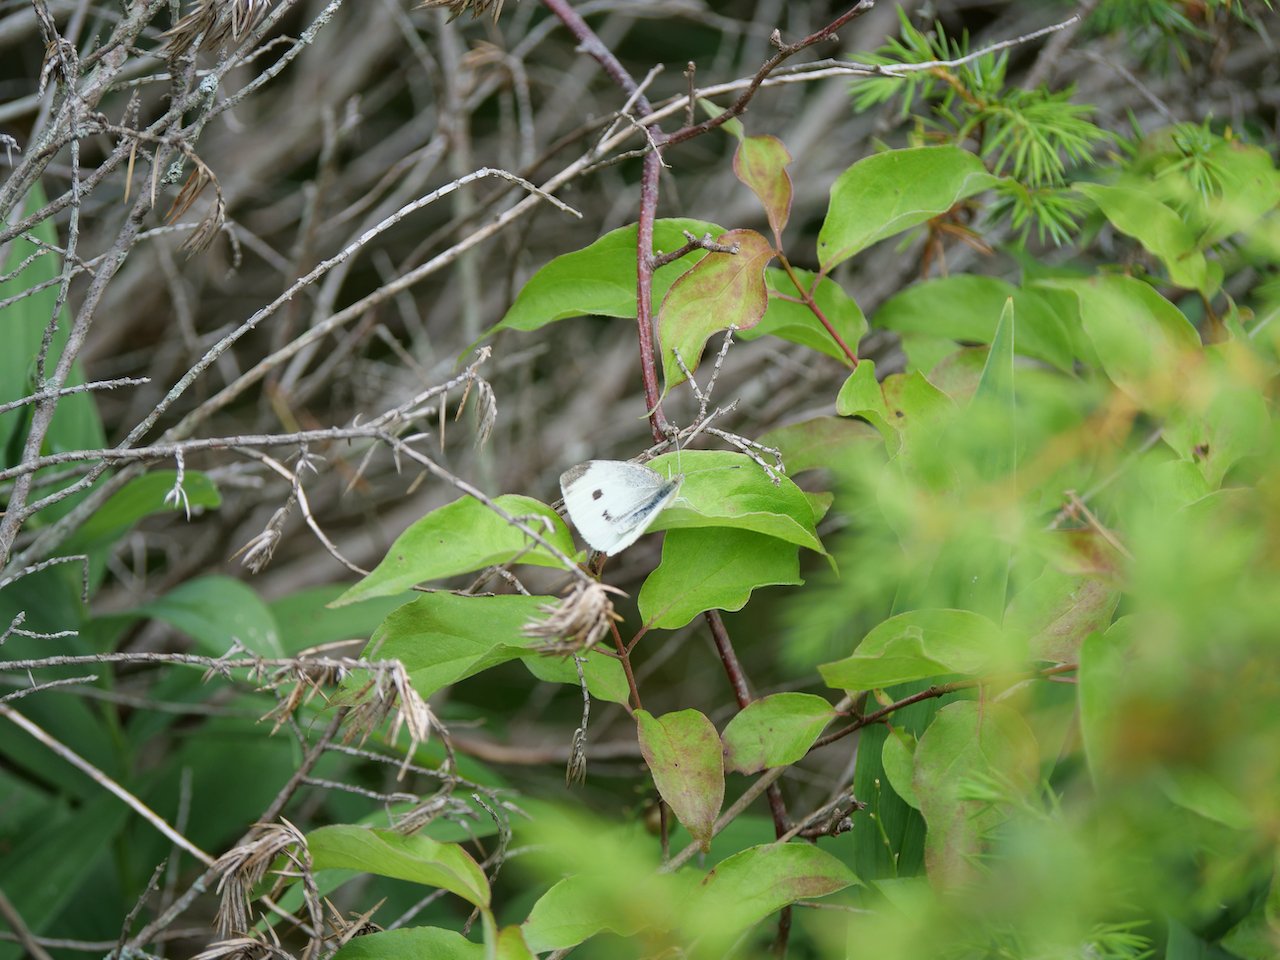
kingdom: Animalia
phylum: Arthropoda
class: Insecta
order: Lepidoptera
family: Pieridae
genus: Pieris
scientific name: Pieris rapae
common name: Cabbage White
